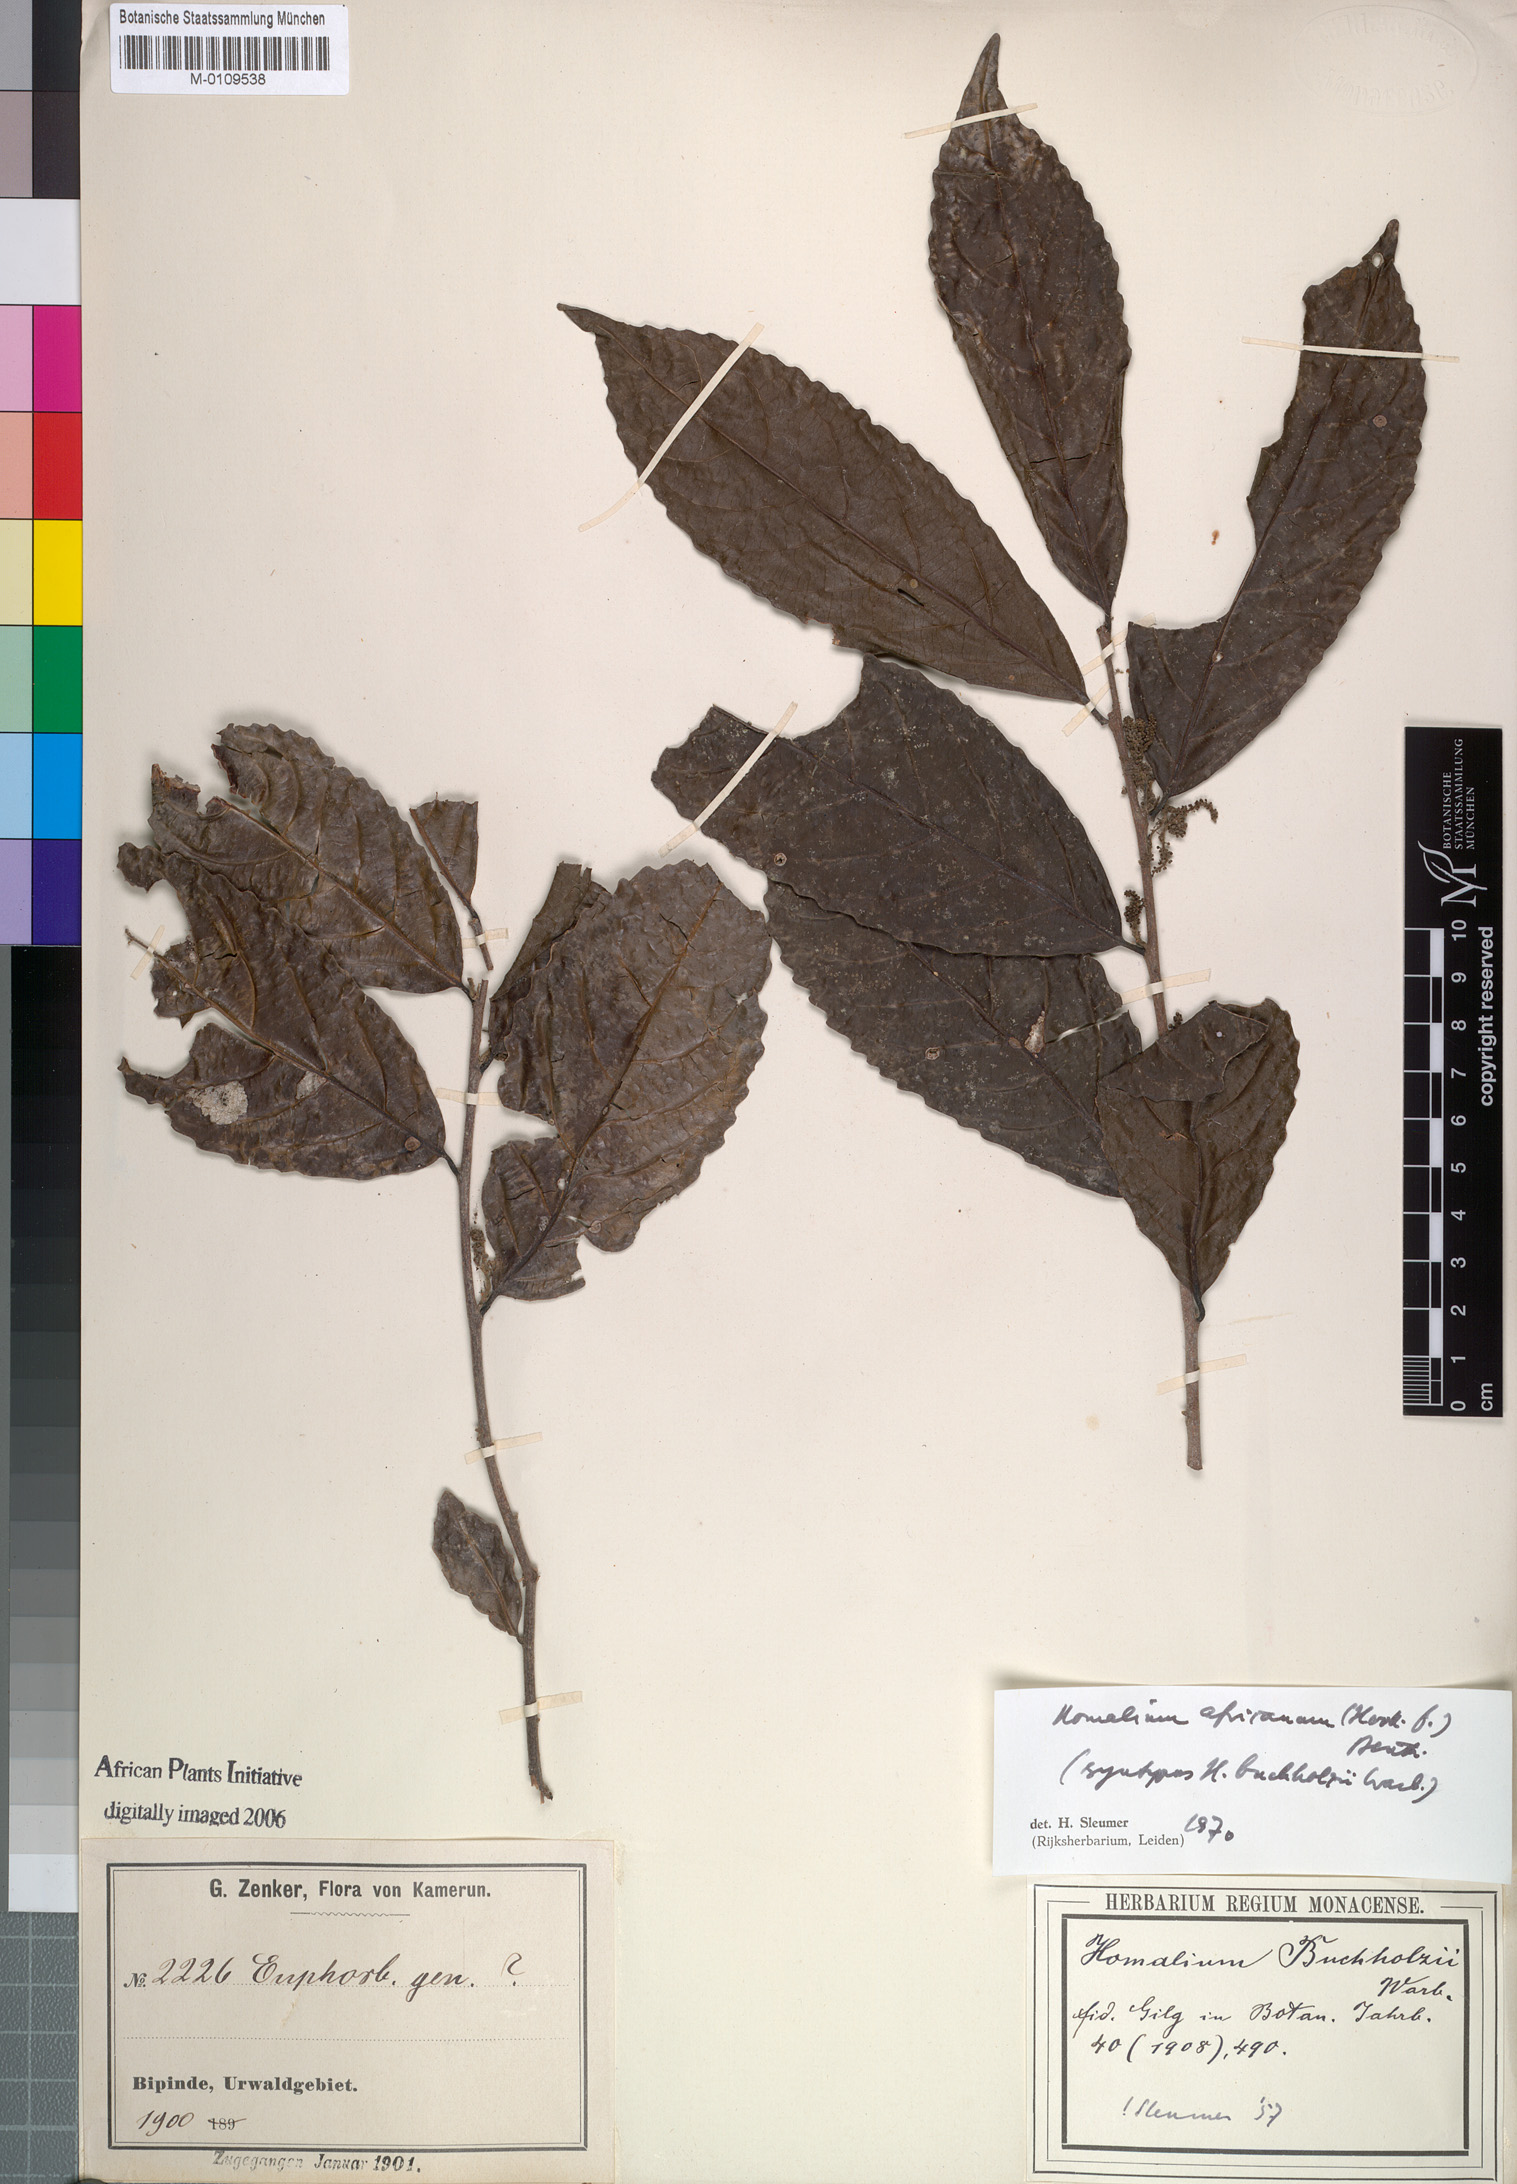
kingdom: Plantae
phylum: Tracheophyta
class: Magnoliopsida
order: Malpighiales
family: Salicaceae
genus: Homalium
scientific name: Homalium africanum
